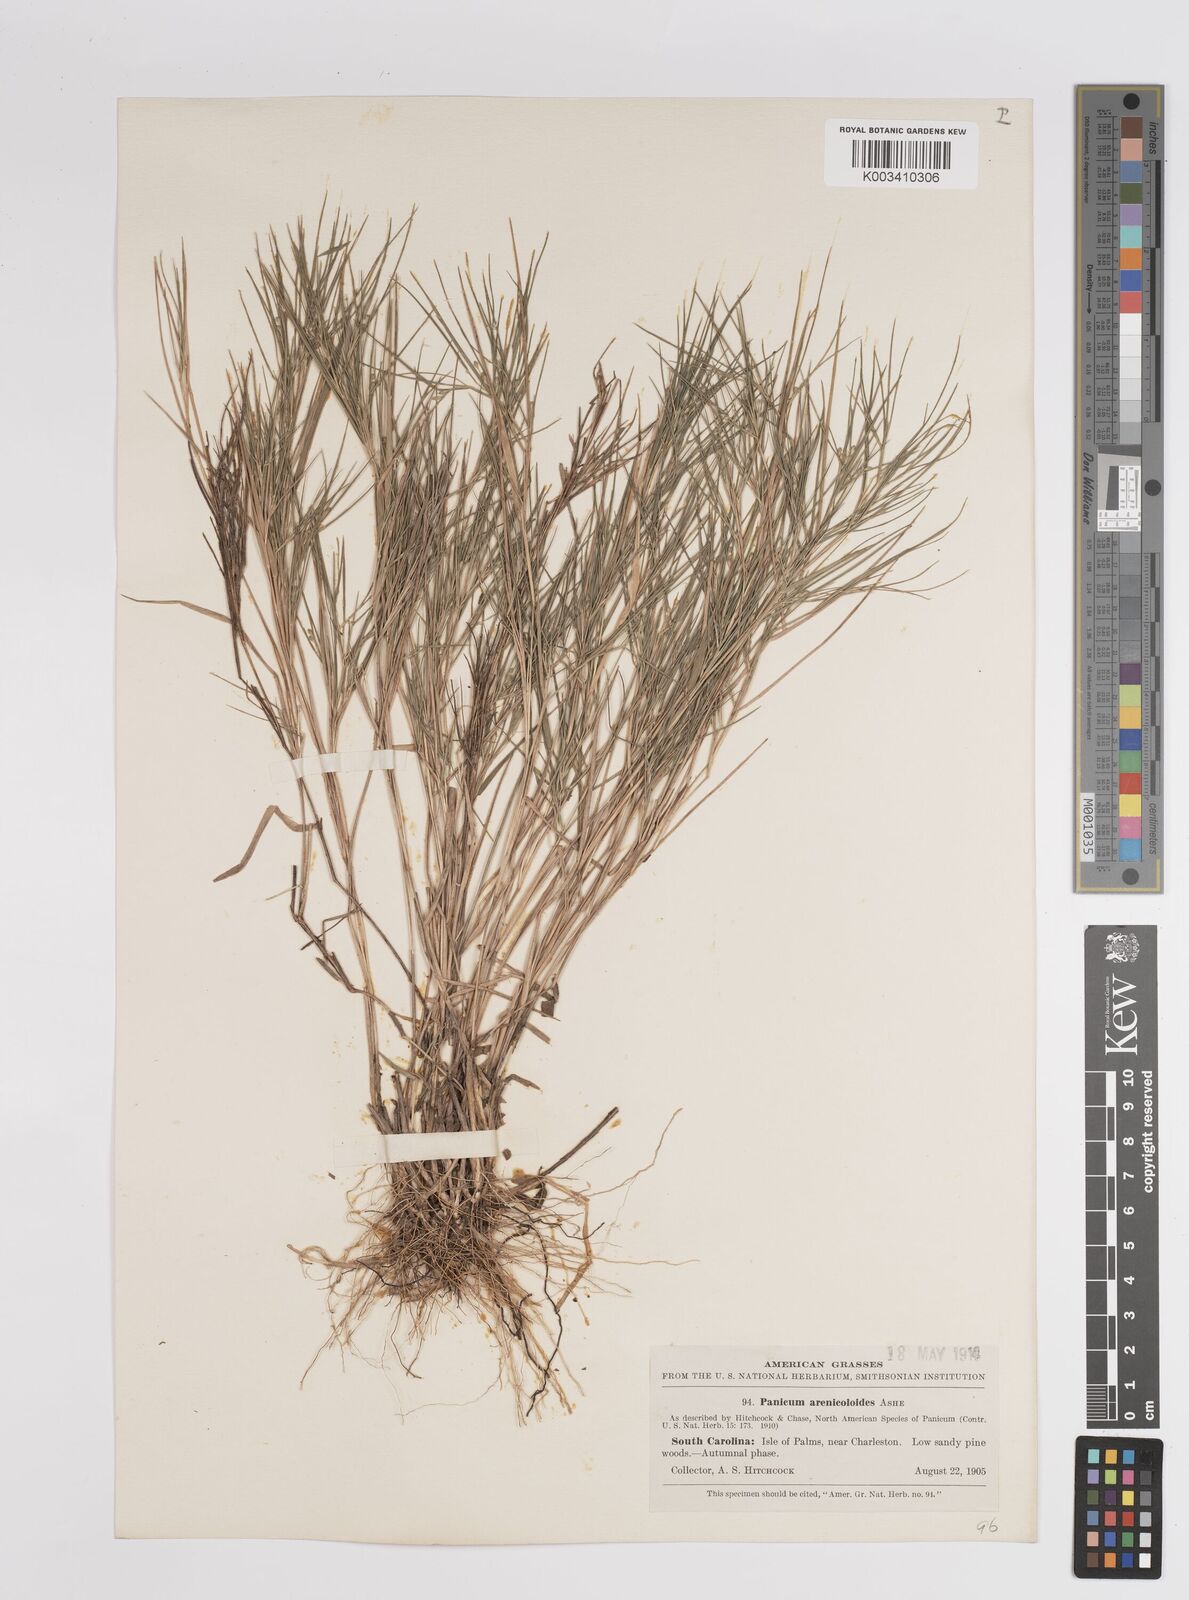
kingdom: Plantae
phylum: Tracheophyta
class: Liliopsida
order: Poales
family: Poaceae
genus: Dichanthelium
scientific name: Dichanthelium aciculare
